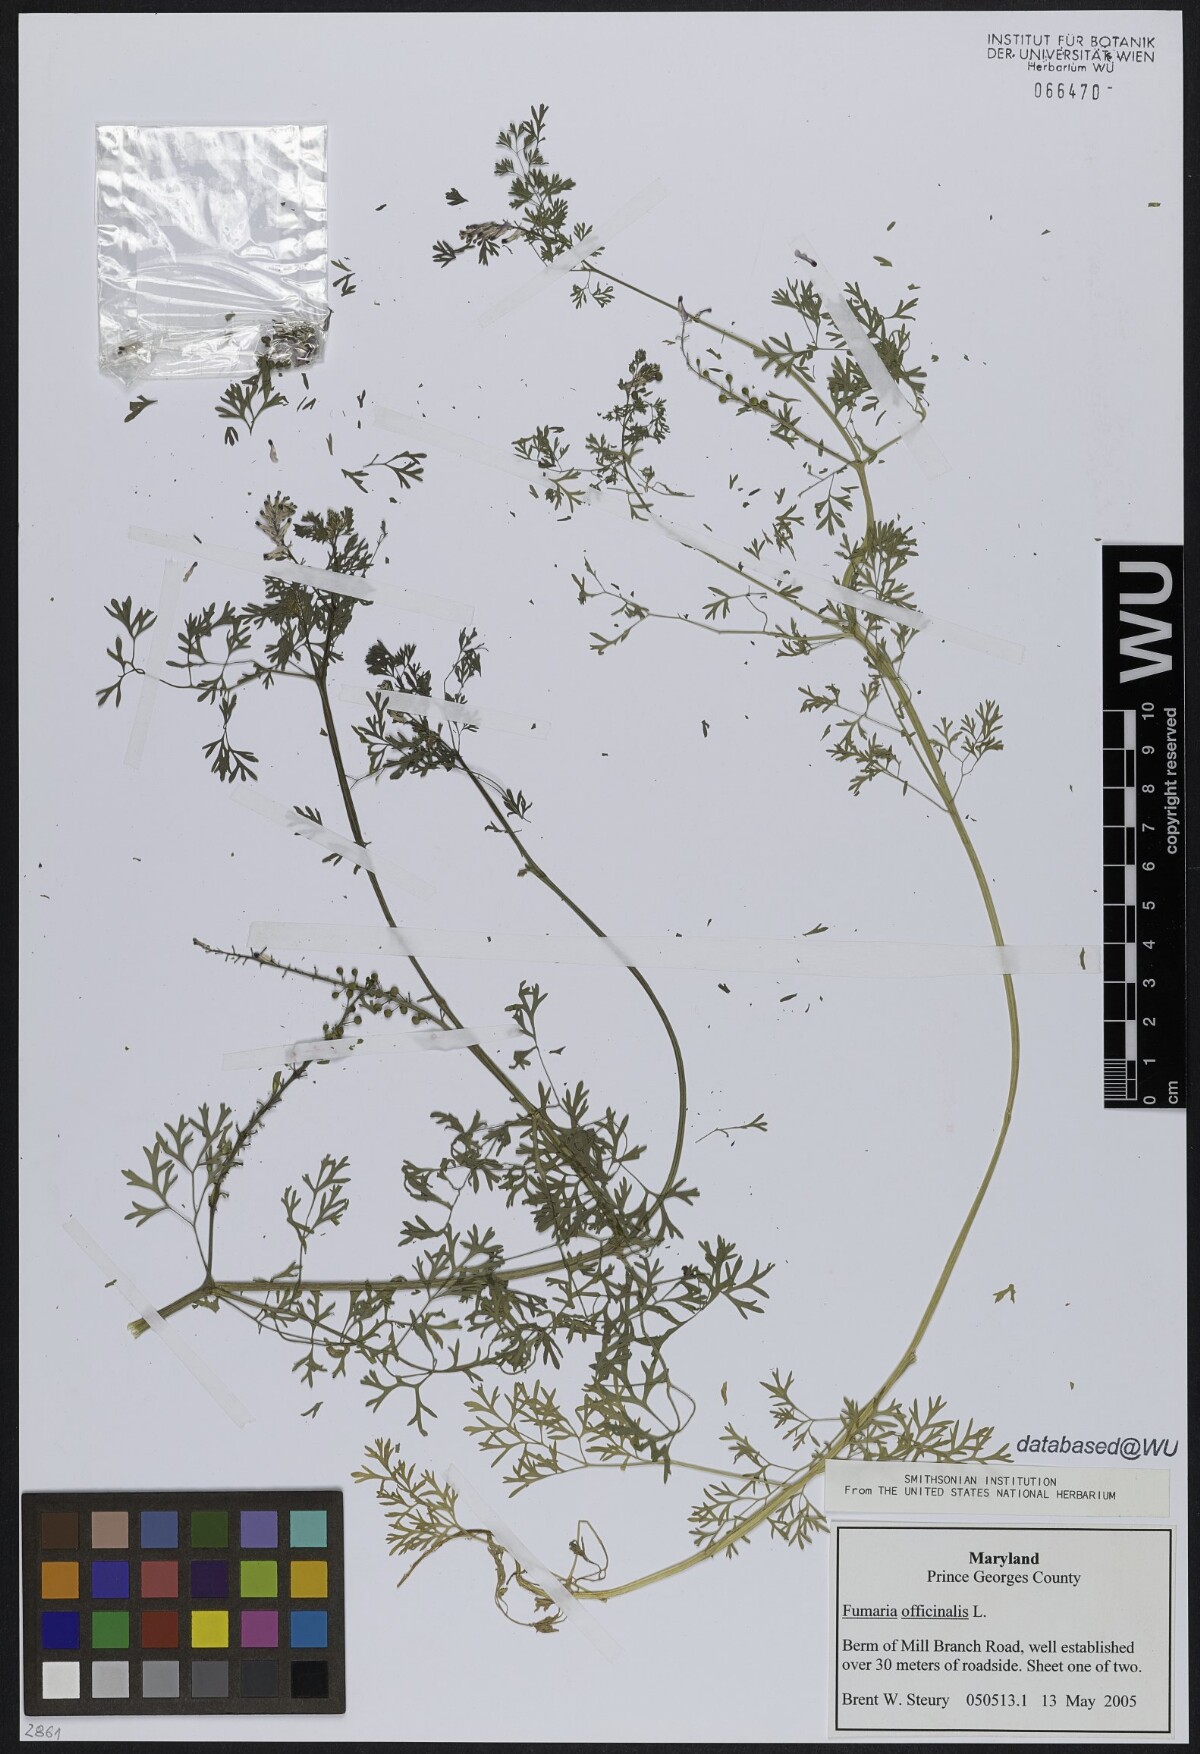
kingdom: Plantae
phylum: Tracheophyta
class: Magnoliopsida
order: Ranunculales
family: Papaveraceae
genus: Fumaria
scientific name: Fumaria officinalis
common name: Common fumitory
